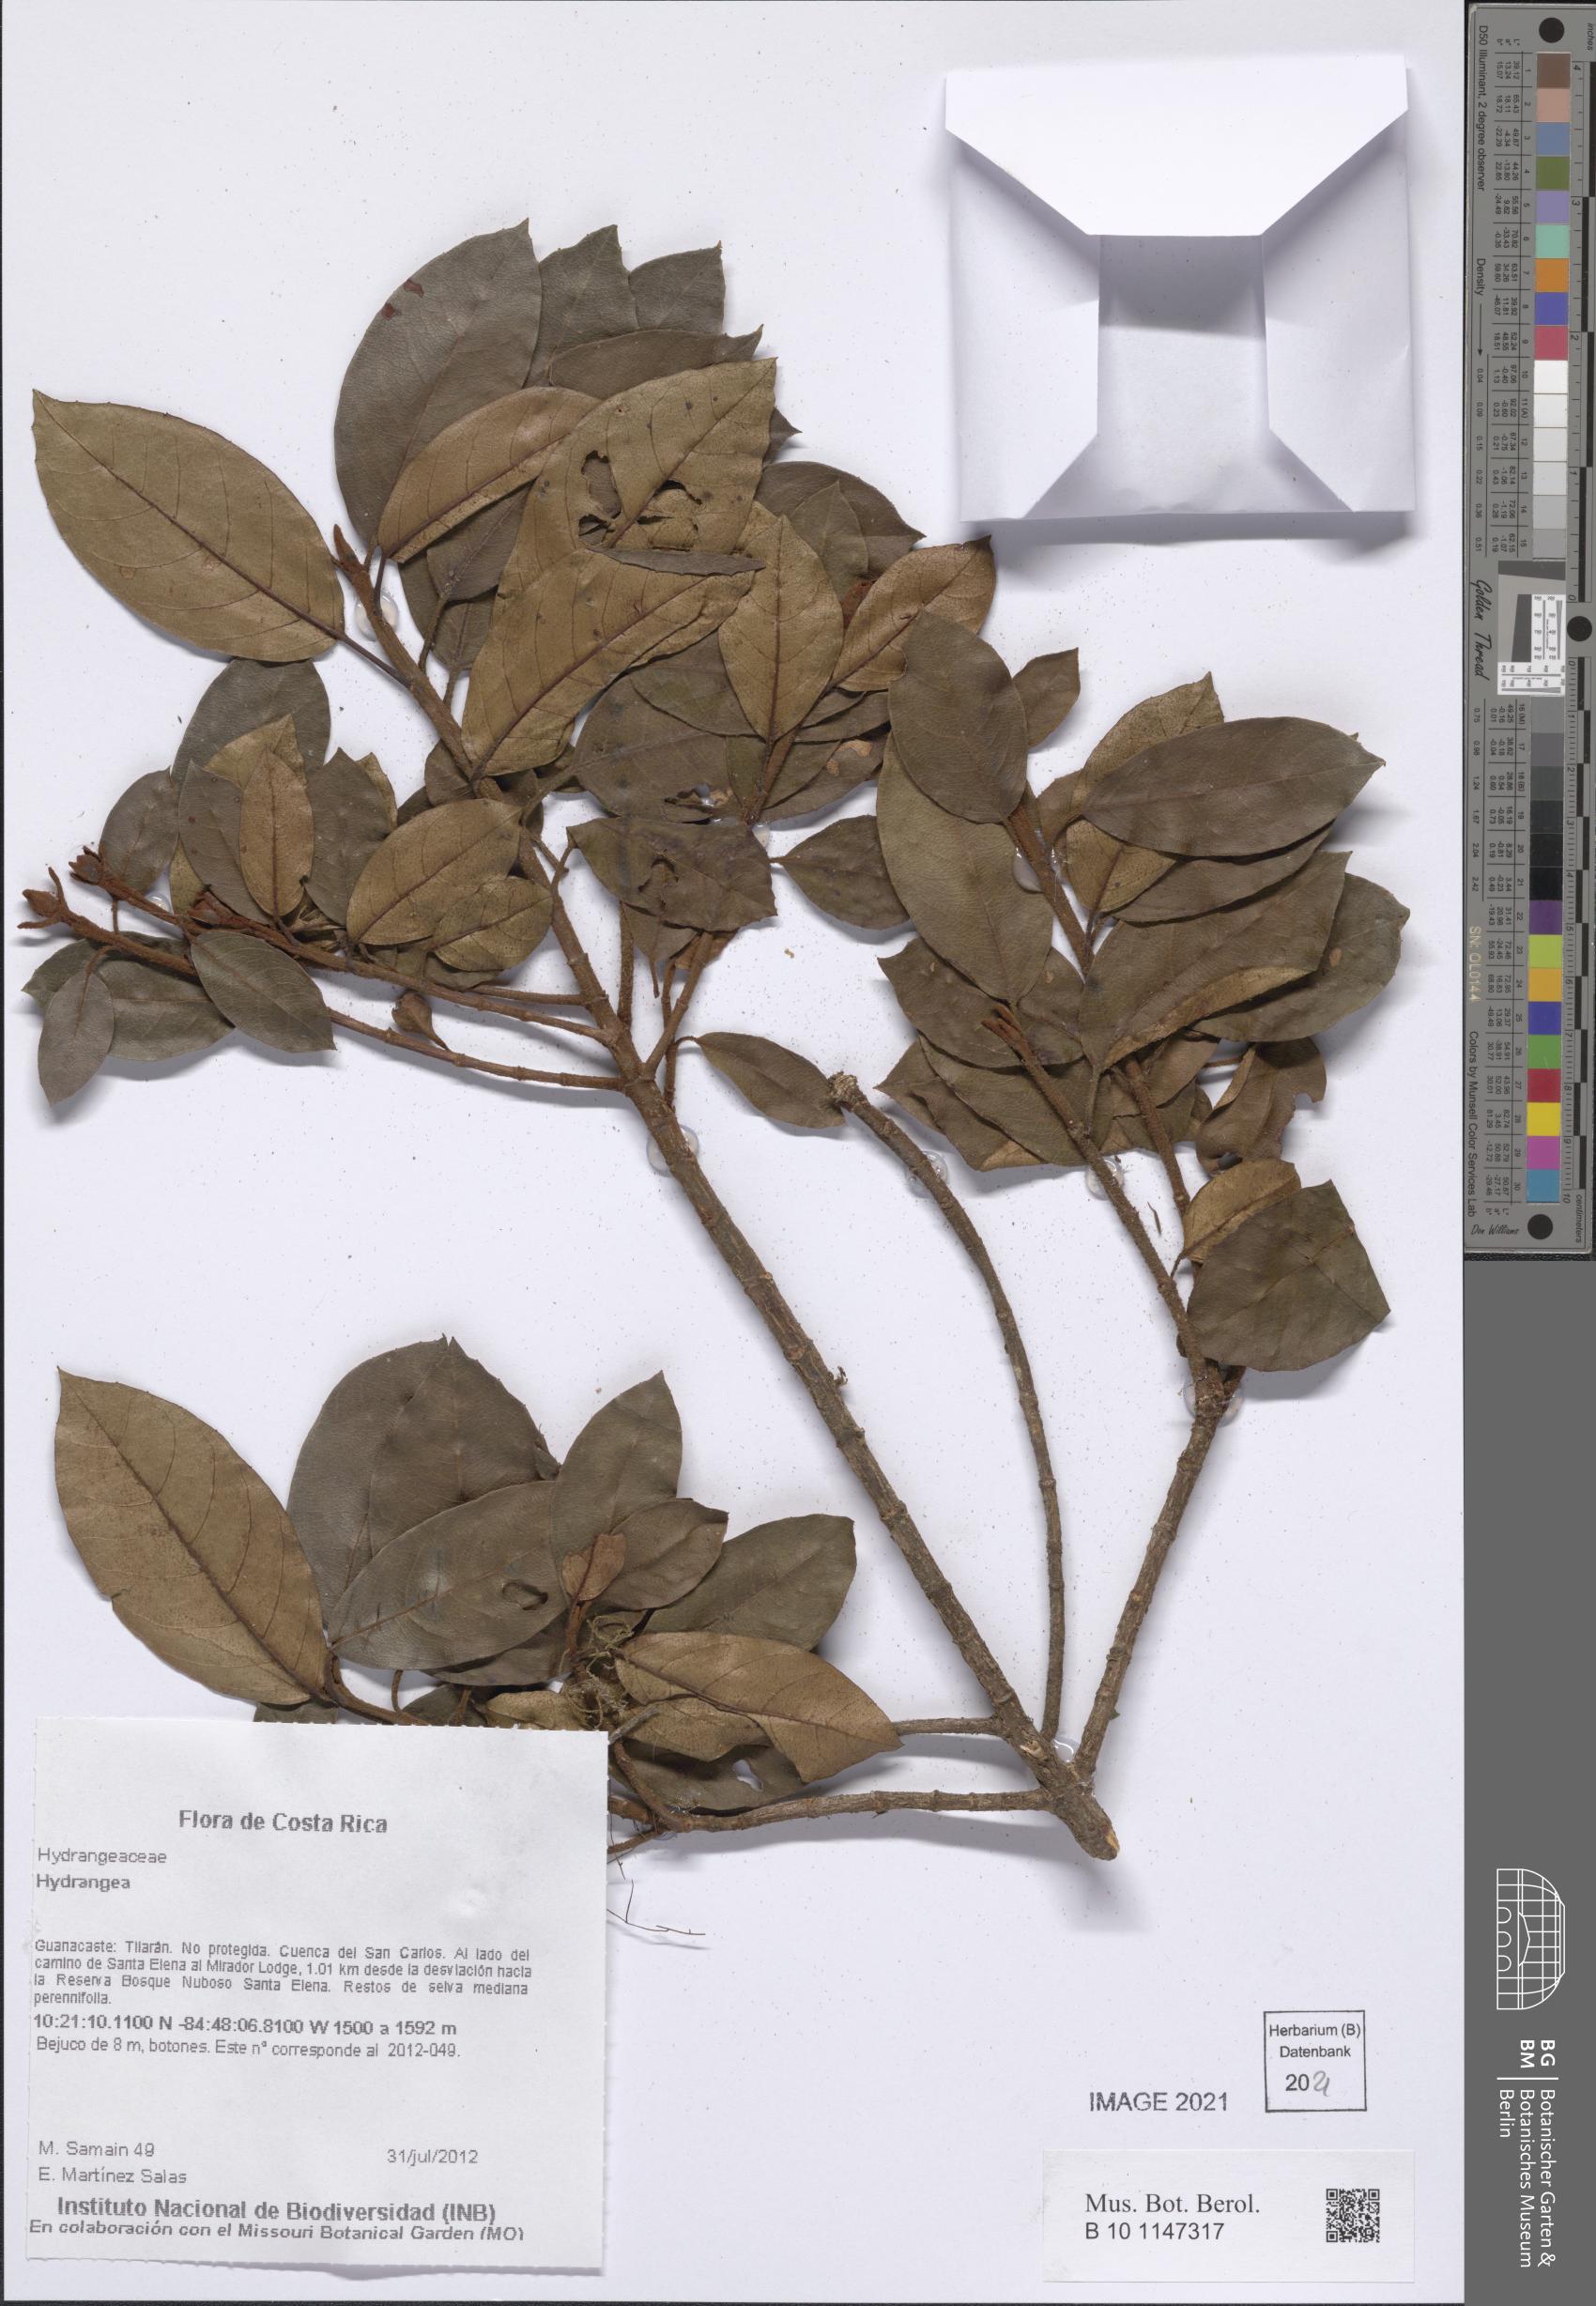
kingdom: Plantae
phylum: Tracheophyta
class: Magnoliopsida
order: Cornales
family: Hydrangeaceae
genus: Hydrangea
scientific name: Hydrangea
